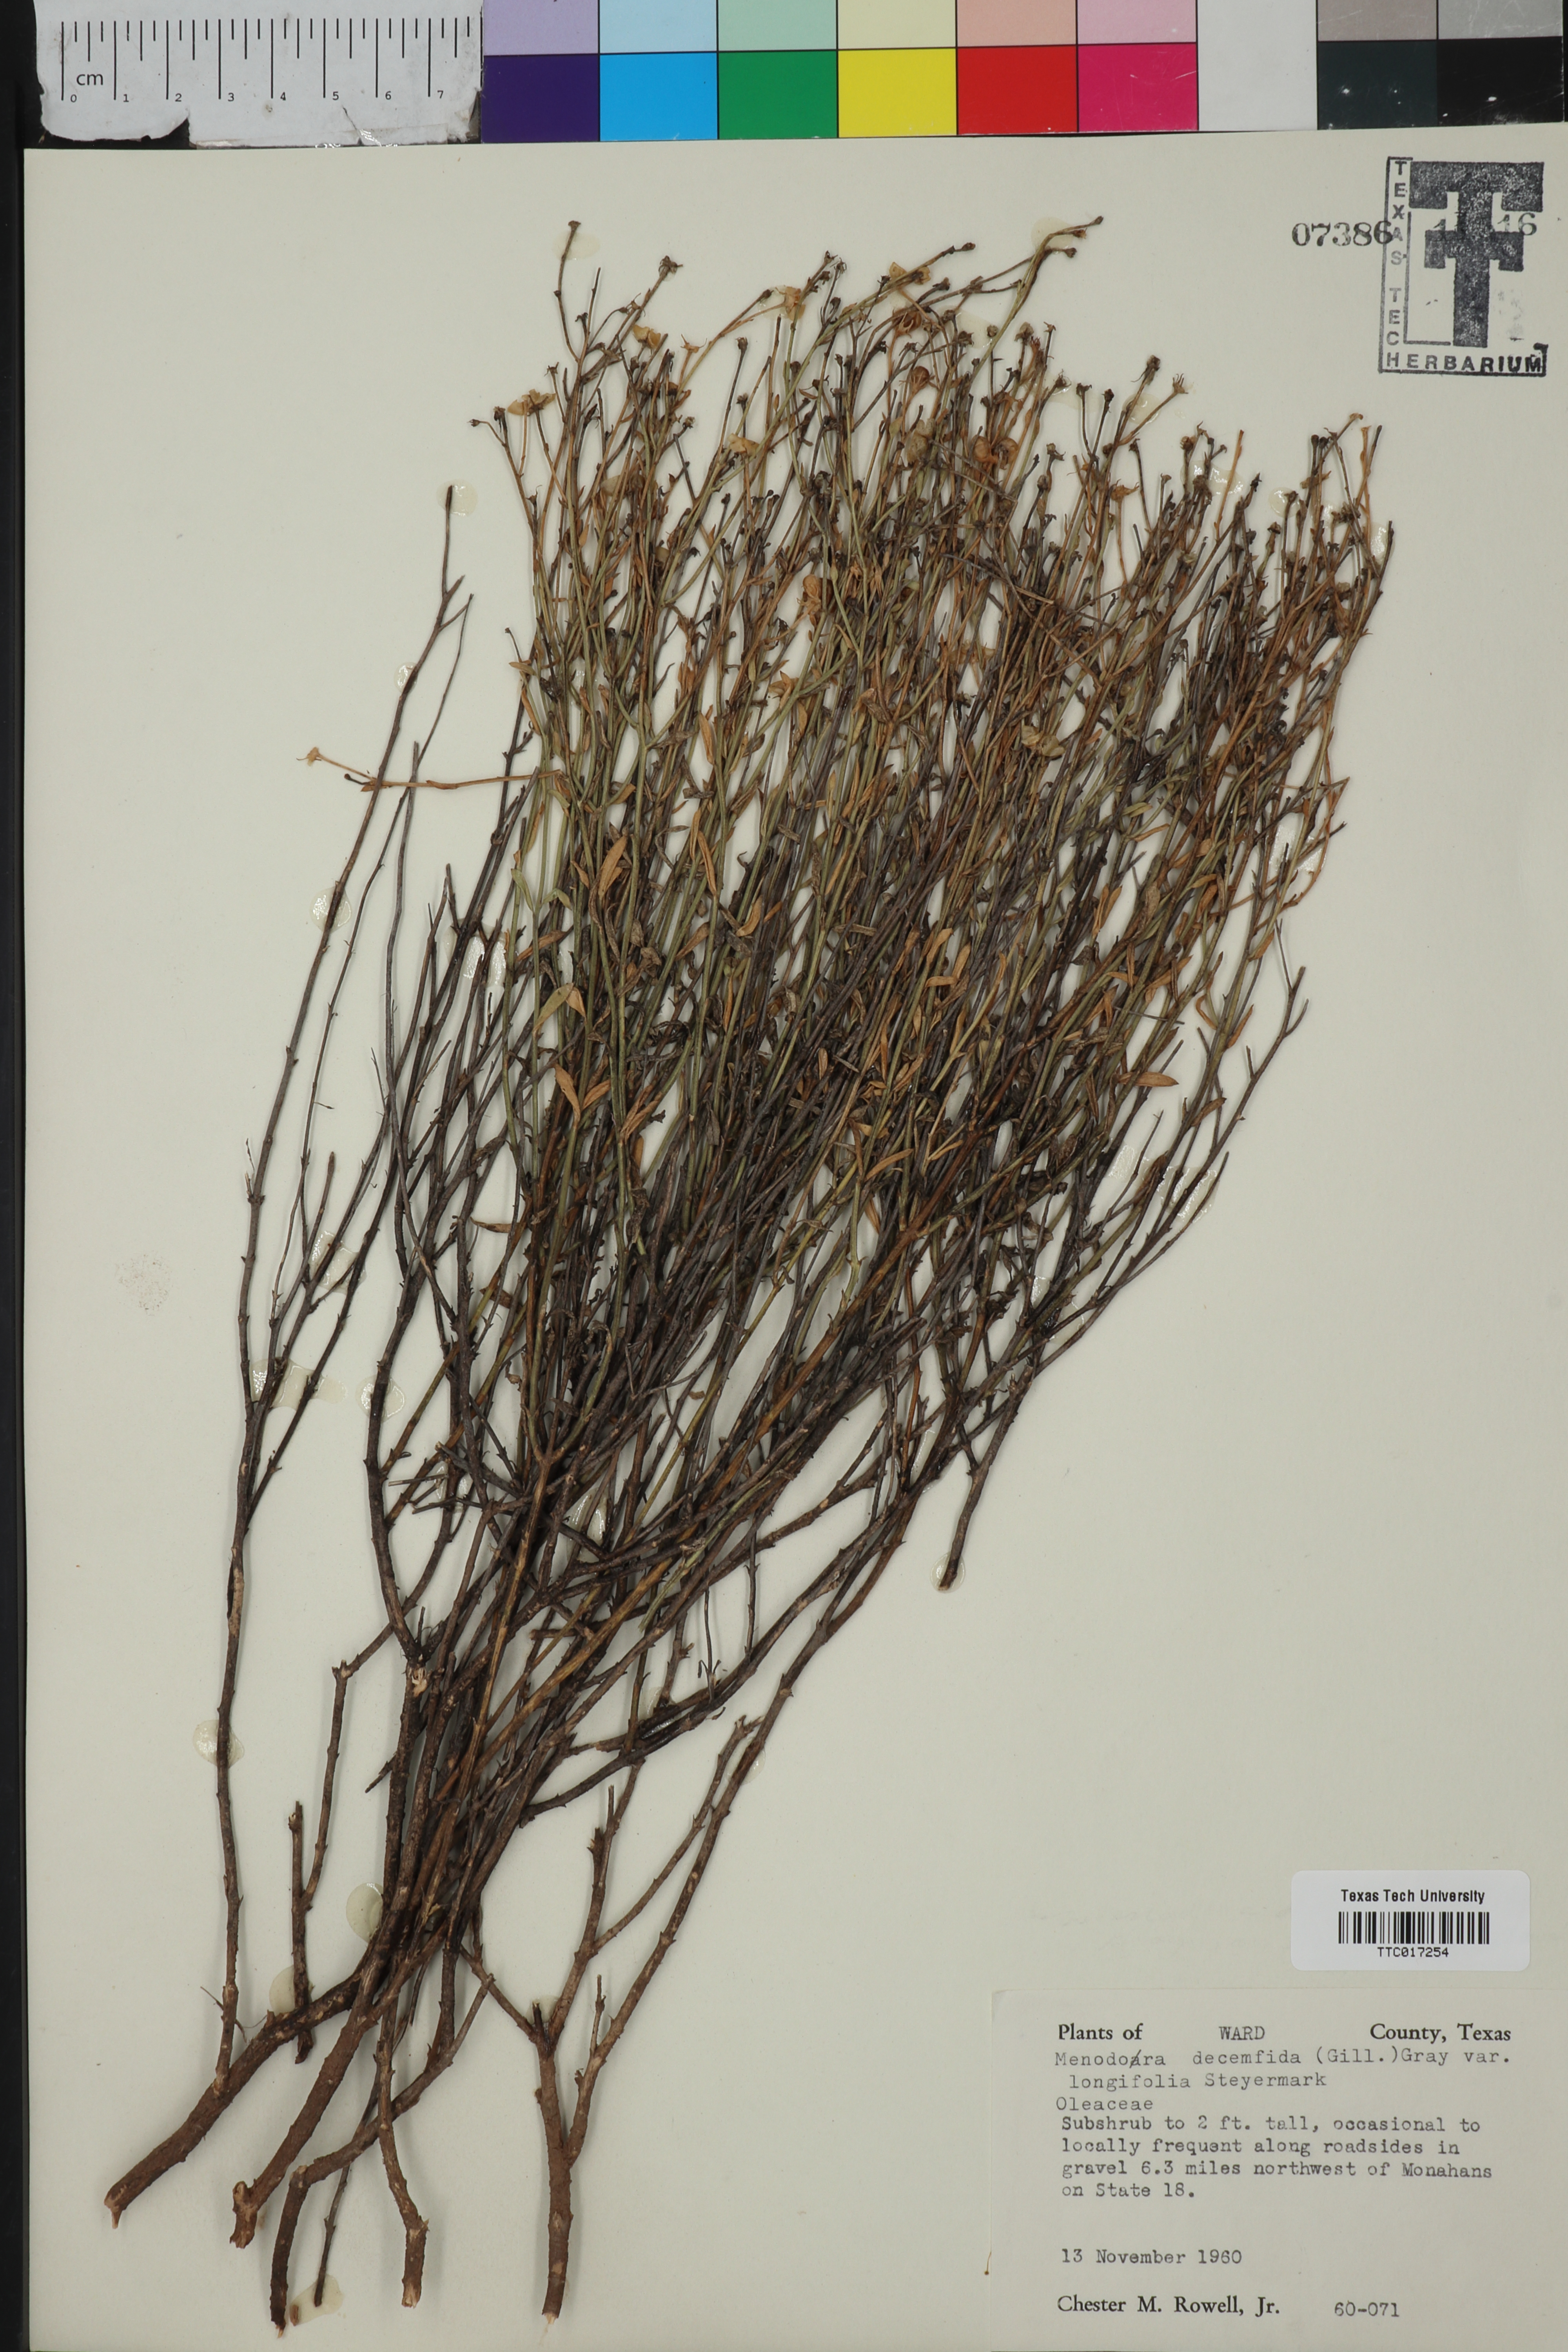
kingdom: Plantae
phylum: Tracheophyta
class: Magnoliopsida
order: Lamiales
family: Oleaceae
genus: Menodora
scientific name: Menodora decemfida
